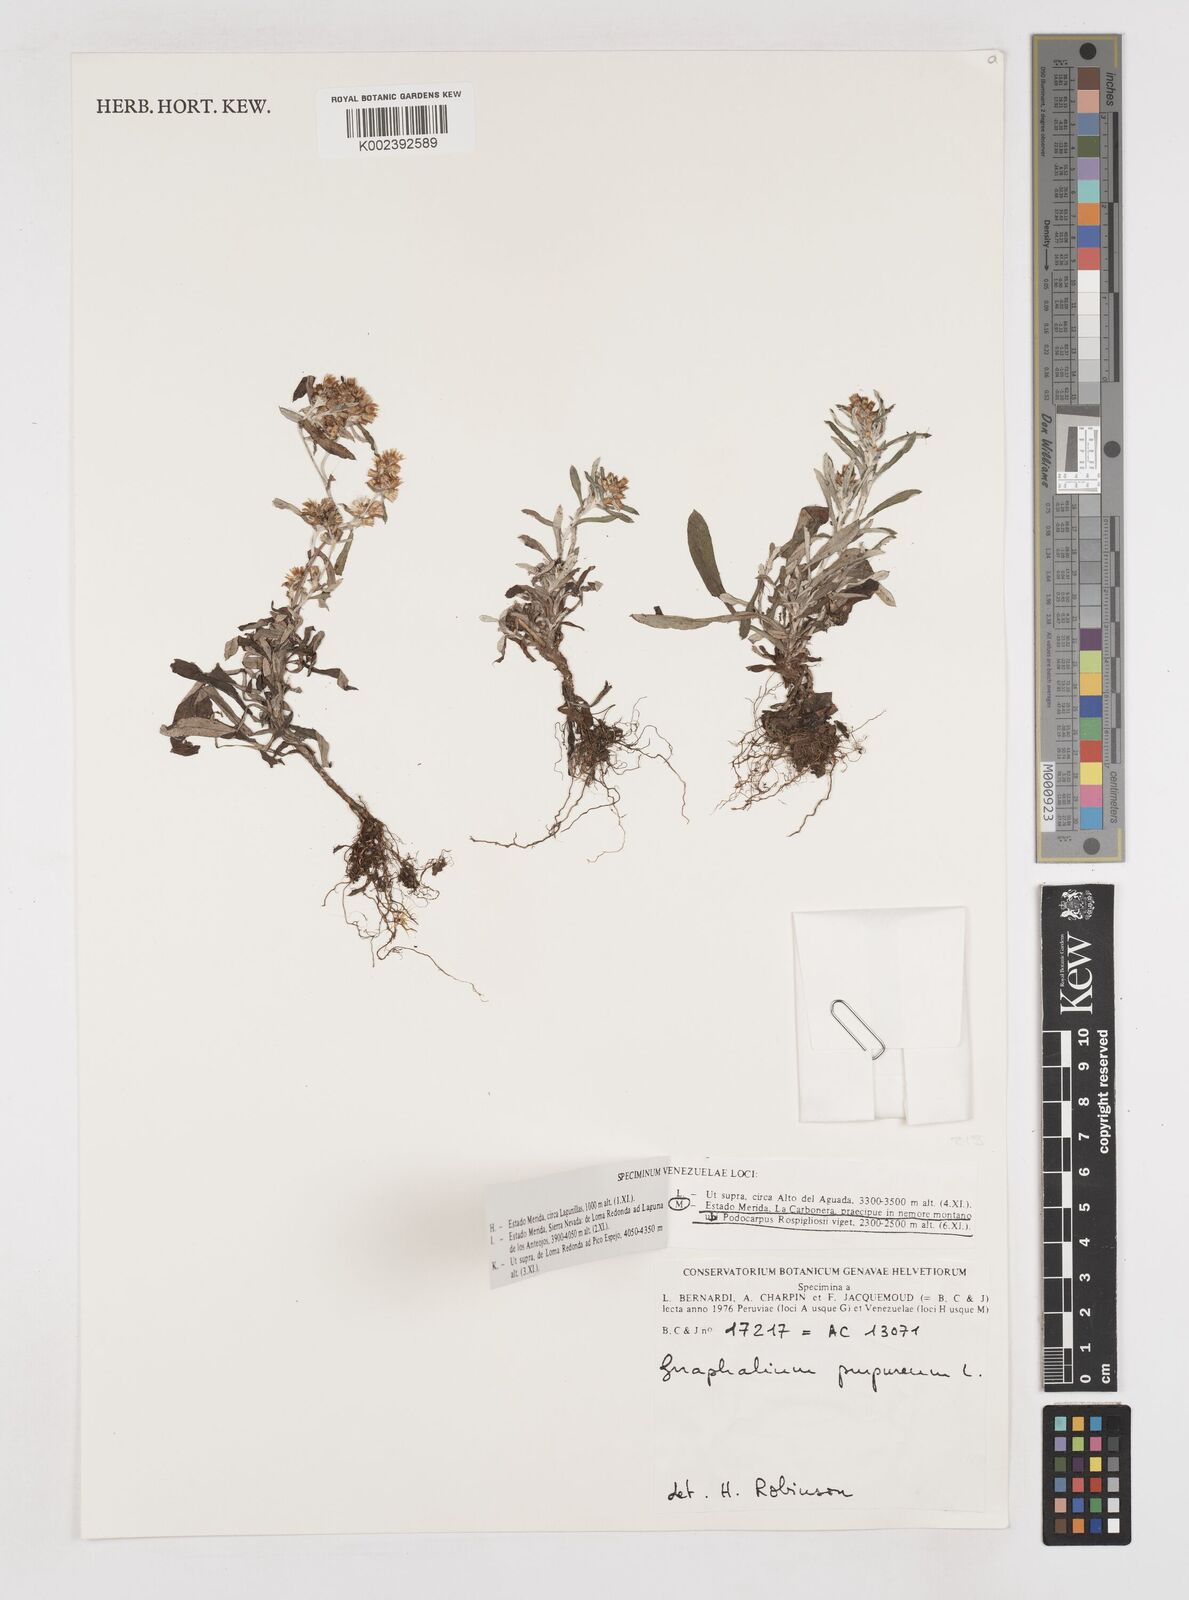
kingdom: Plantae
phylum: Tracheophyta
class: Magnoliopsida
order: Asterales
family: Asteraceae
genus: Pseudognaphalium
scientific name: Pseudognaphalium purpurascens
